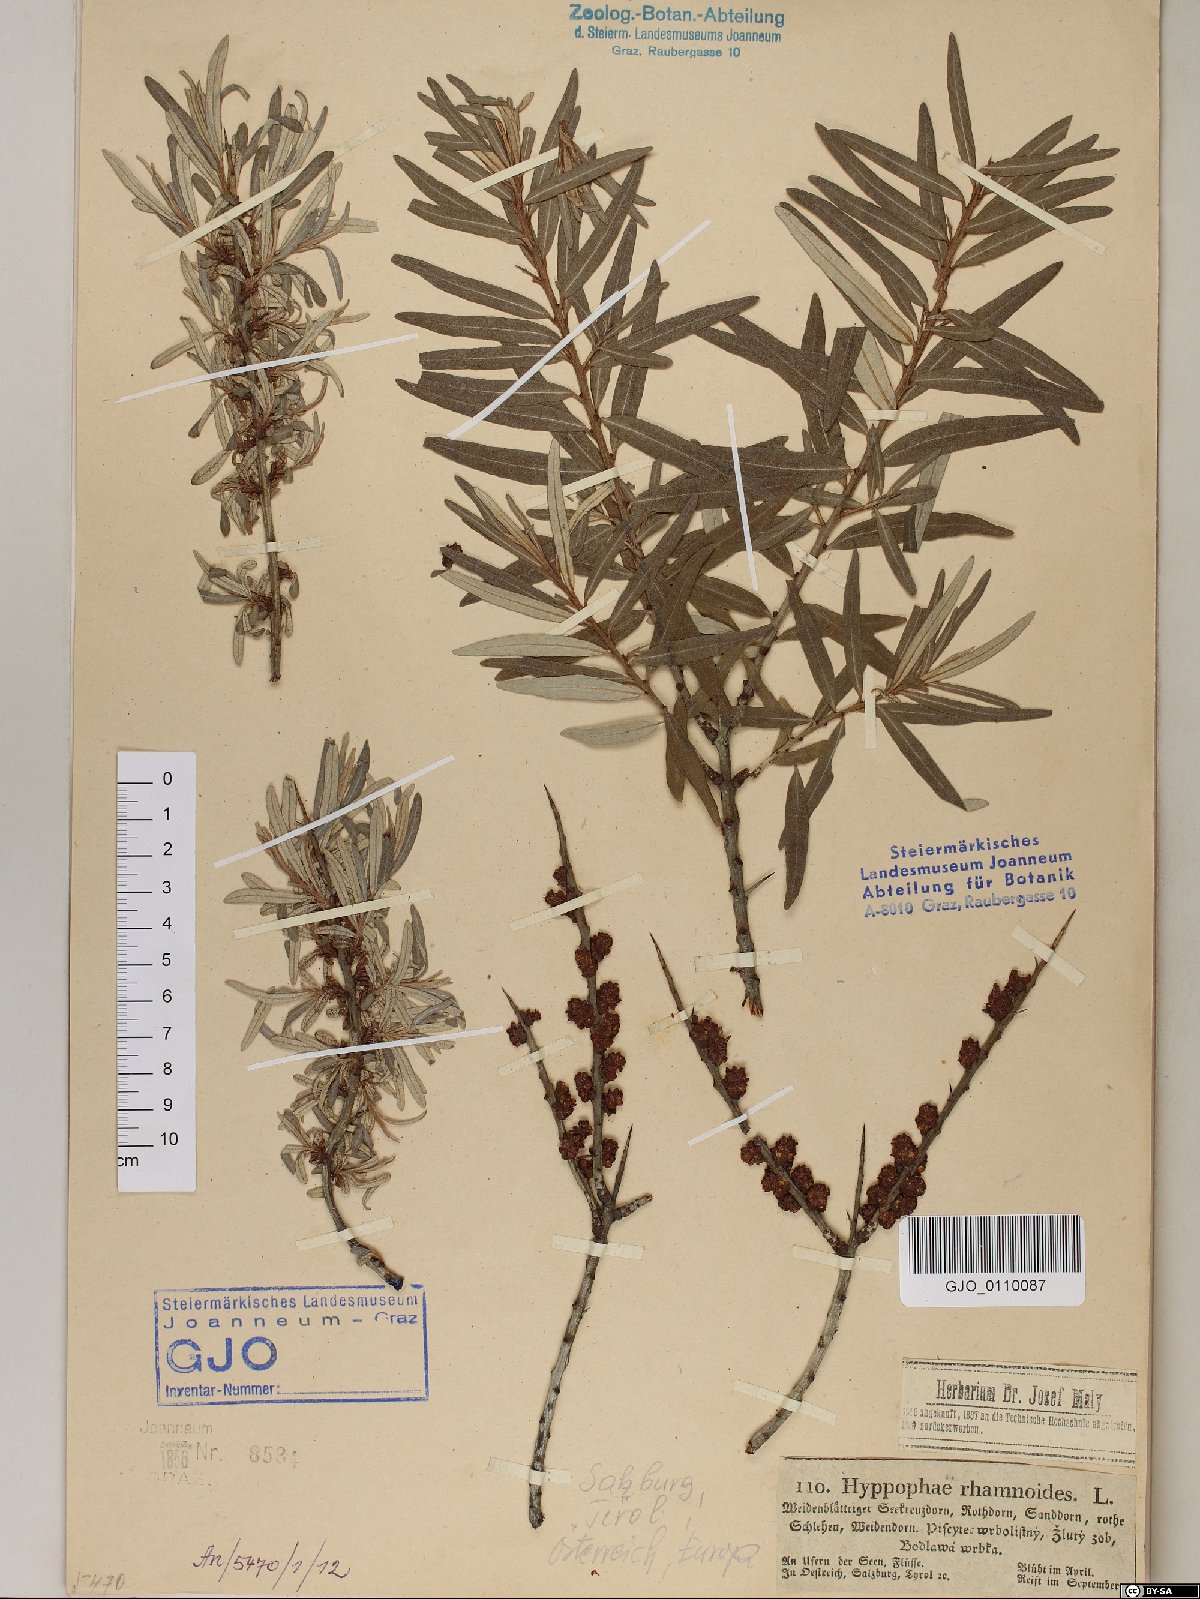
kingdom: Plantae
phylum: Tracheophyta
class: Magnoliopsida
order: Rosales
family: Elaeagnaceae
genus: Hippophae
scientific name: Hippophae rhamnoides
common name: Sea-buckthorn
